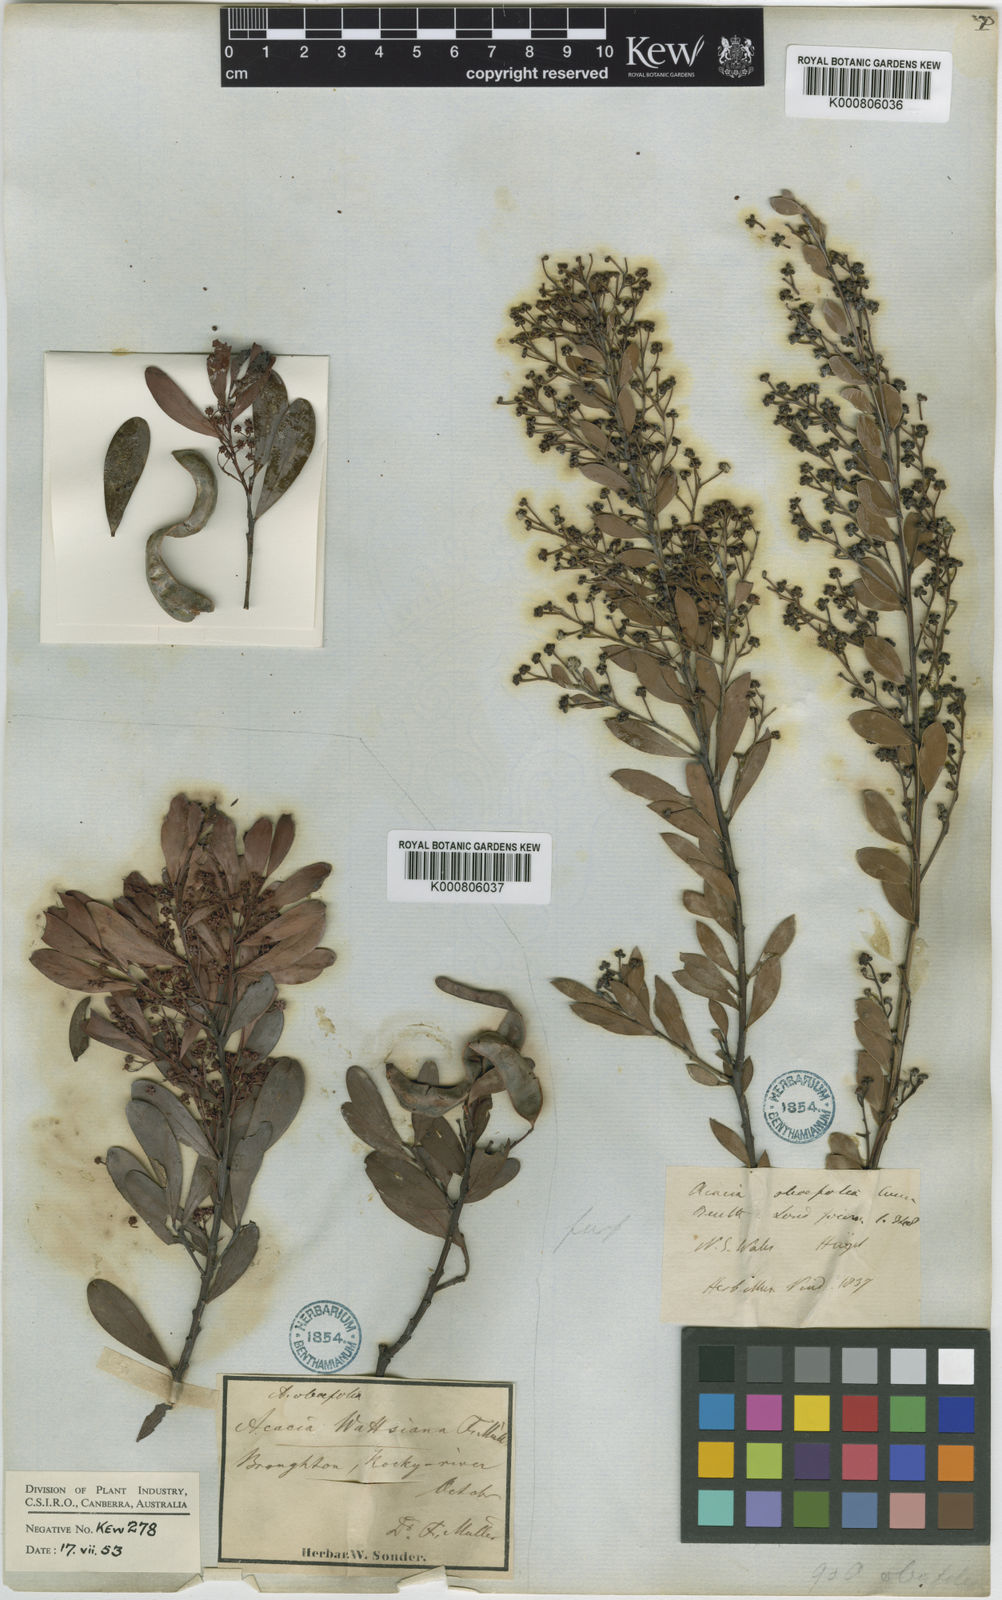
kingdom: Plantae
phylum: Tracheophyta
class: Magnoliopsida
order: Fabales
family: Fabaceae
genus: Acacia
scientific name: Acacia
